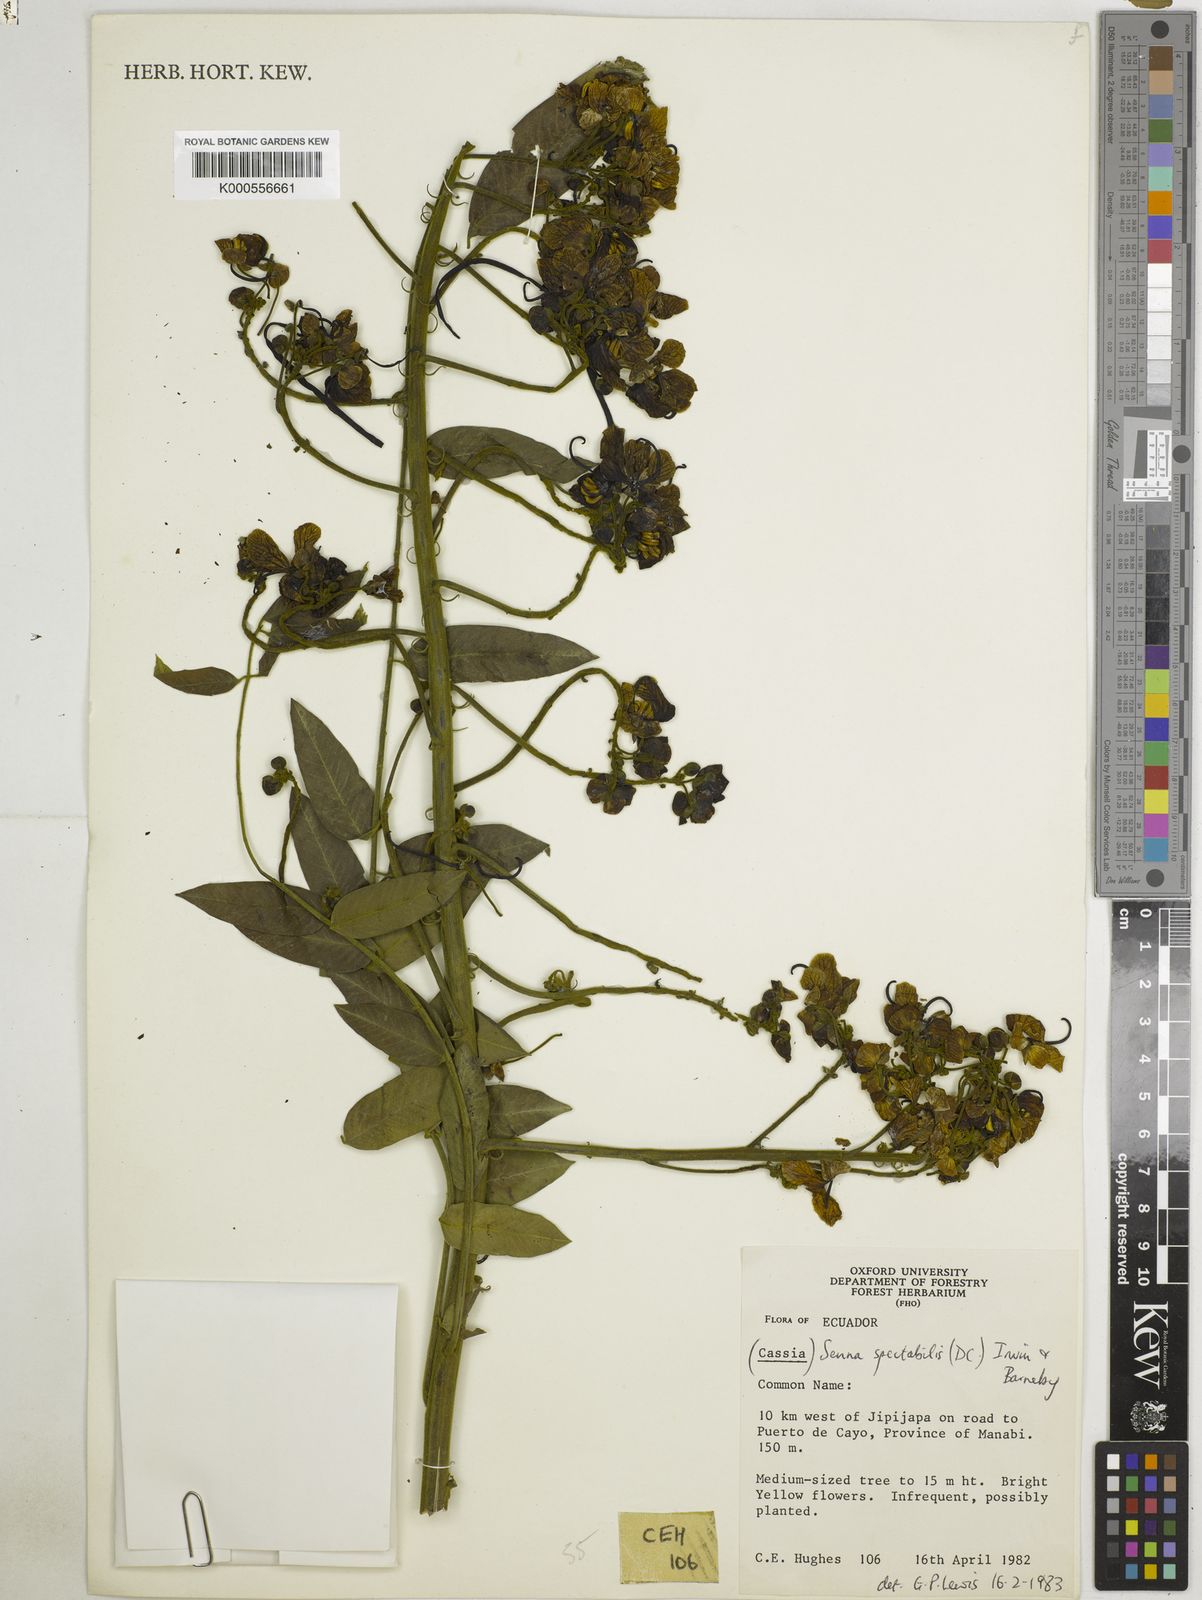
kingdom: Plantae
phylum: Tracheophyta
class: Magnoliopsida
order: Fabales
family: Fabaceae
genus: Senna
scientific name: Senna spectabilis
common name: Casia amarilla
